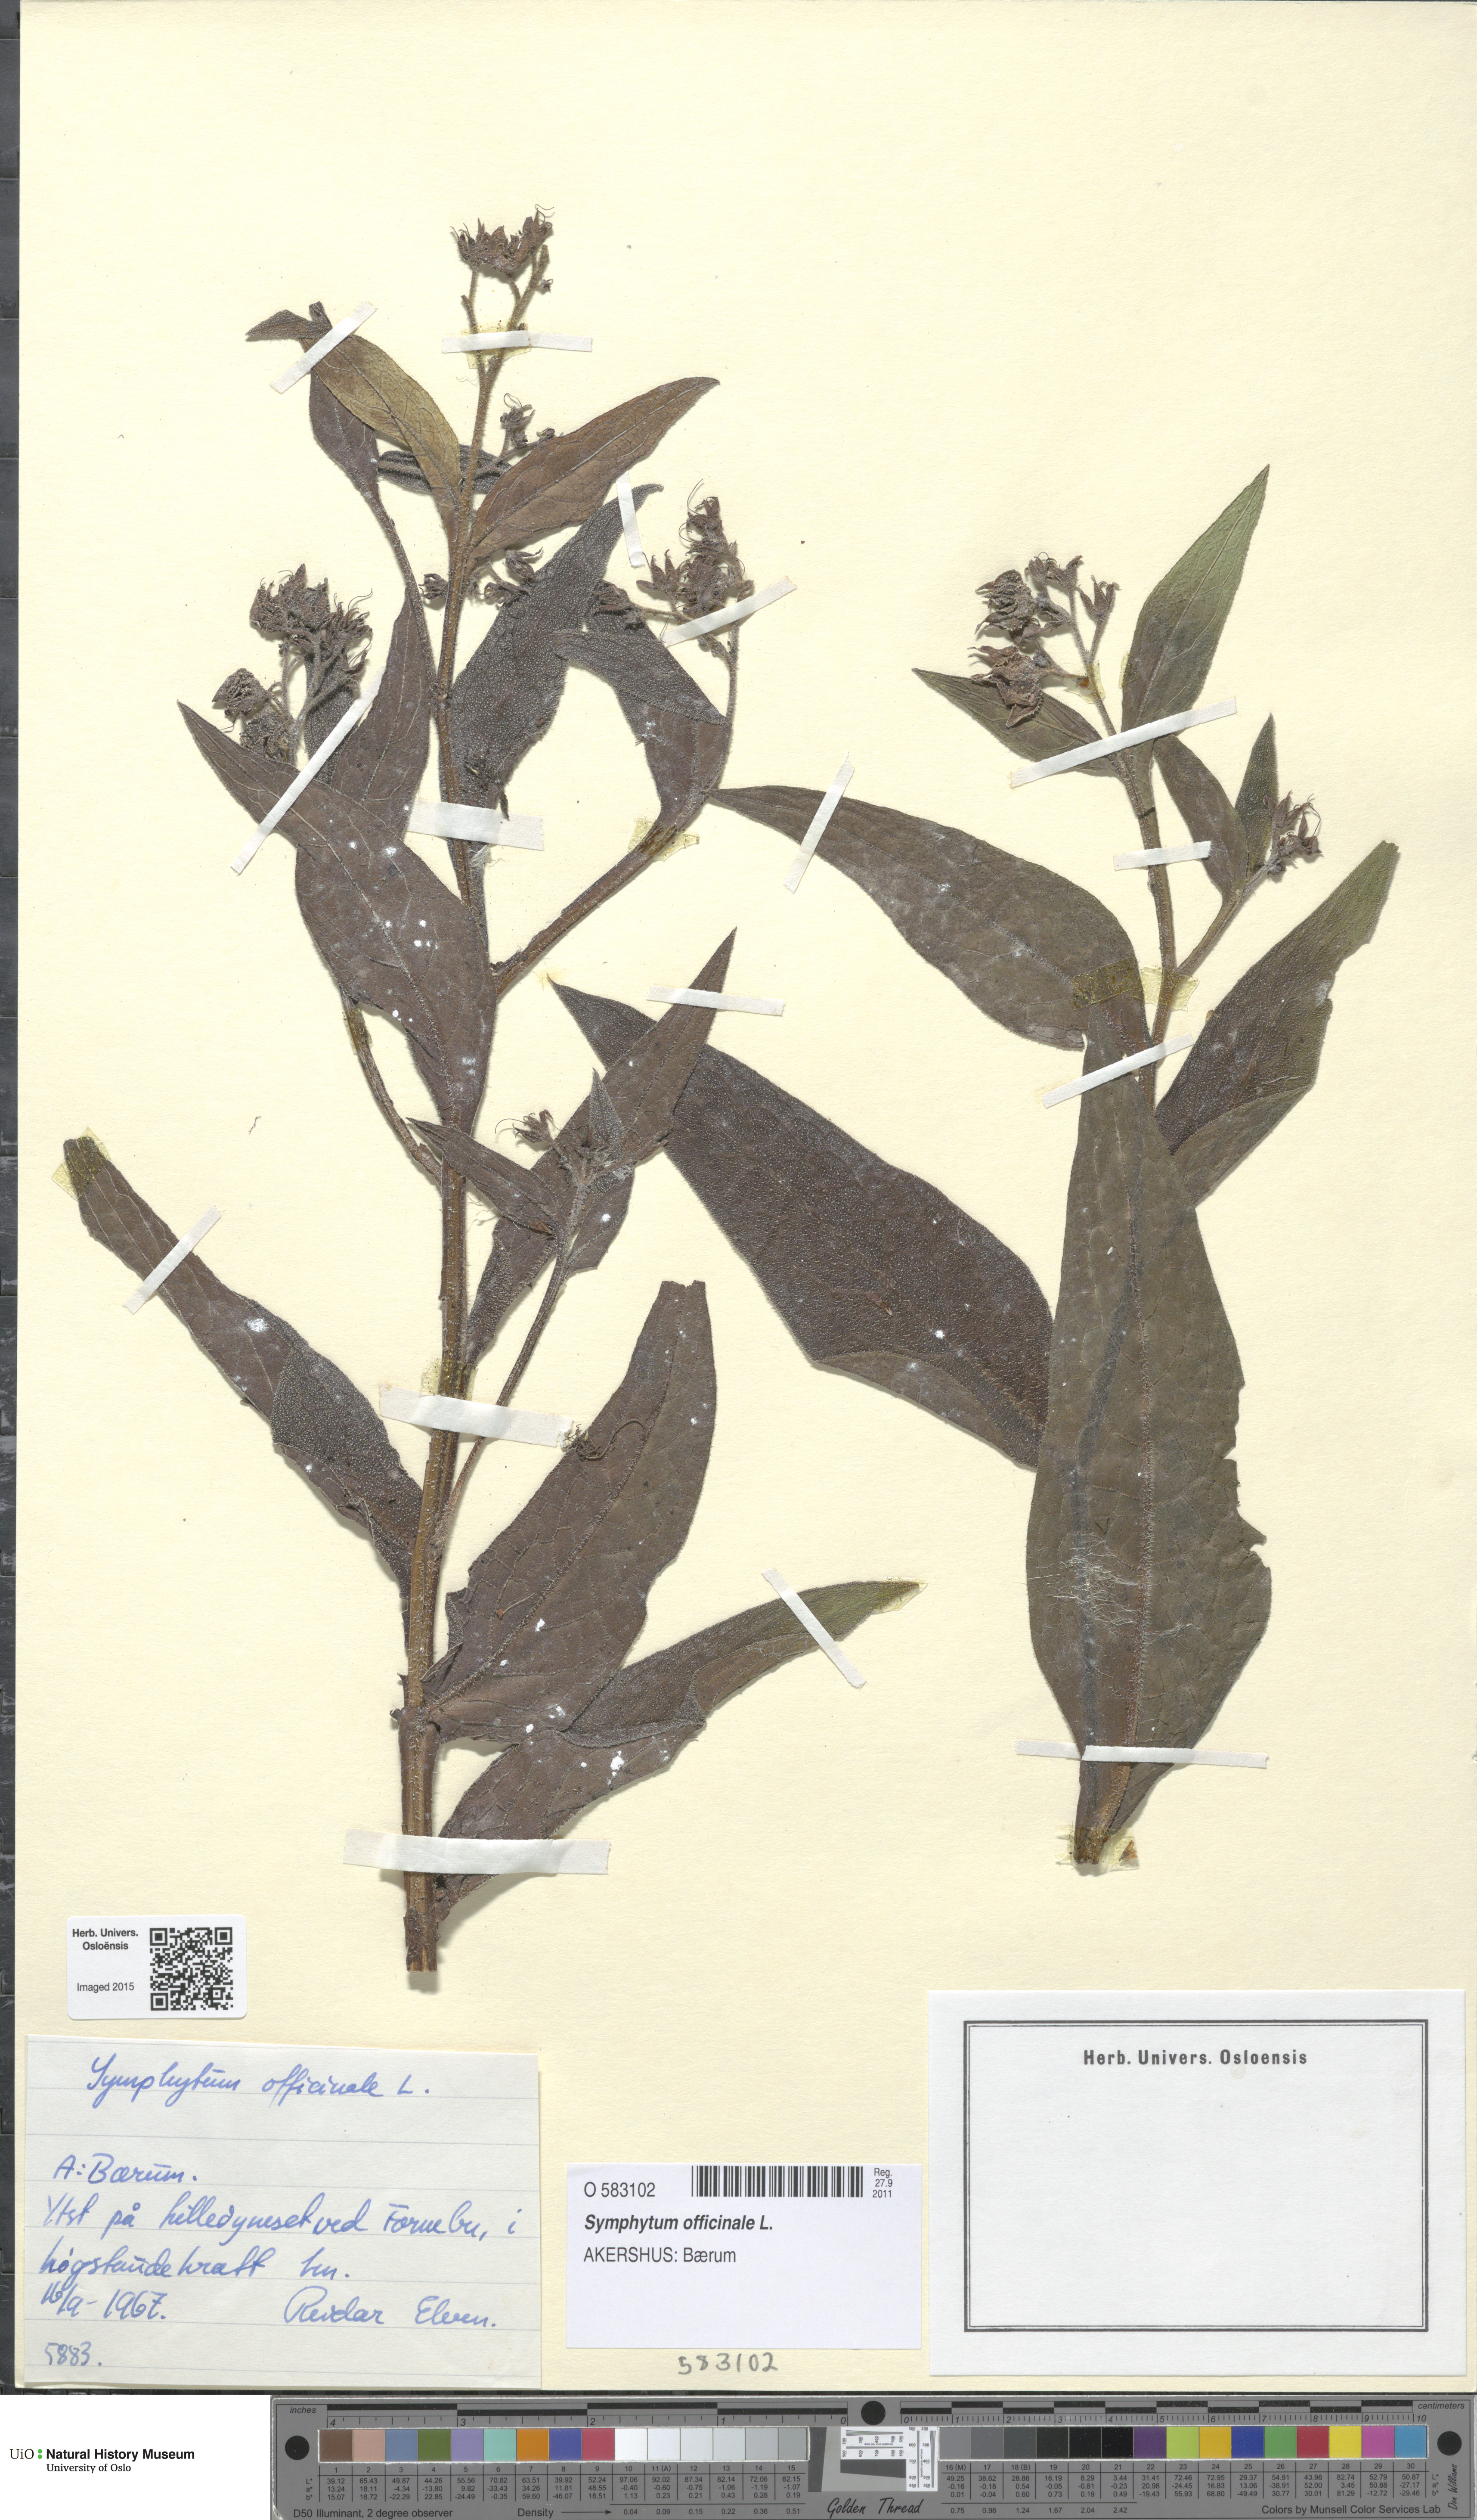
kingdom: Plantae
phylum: Tracheophyta
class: Magnoliopsida
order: Boraginales
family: Boraginaceae
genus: Symphytum
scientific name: Symphytum officinale
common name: Common comfrey
